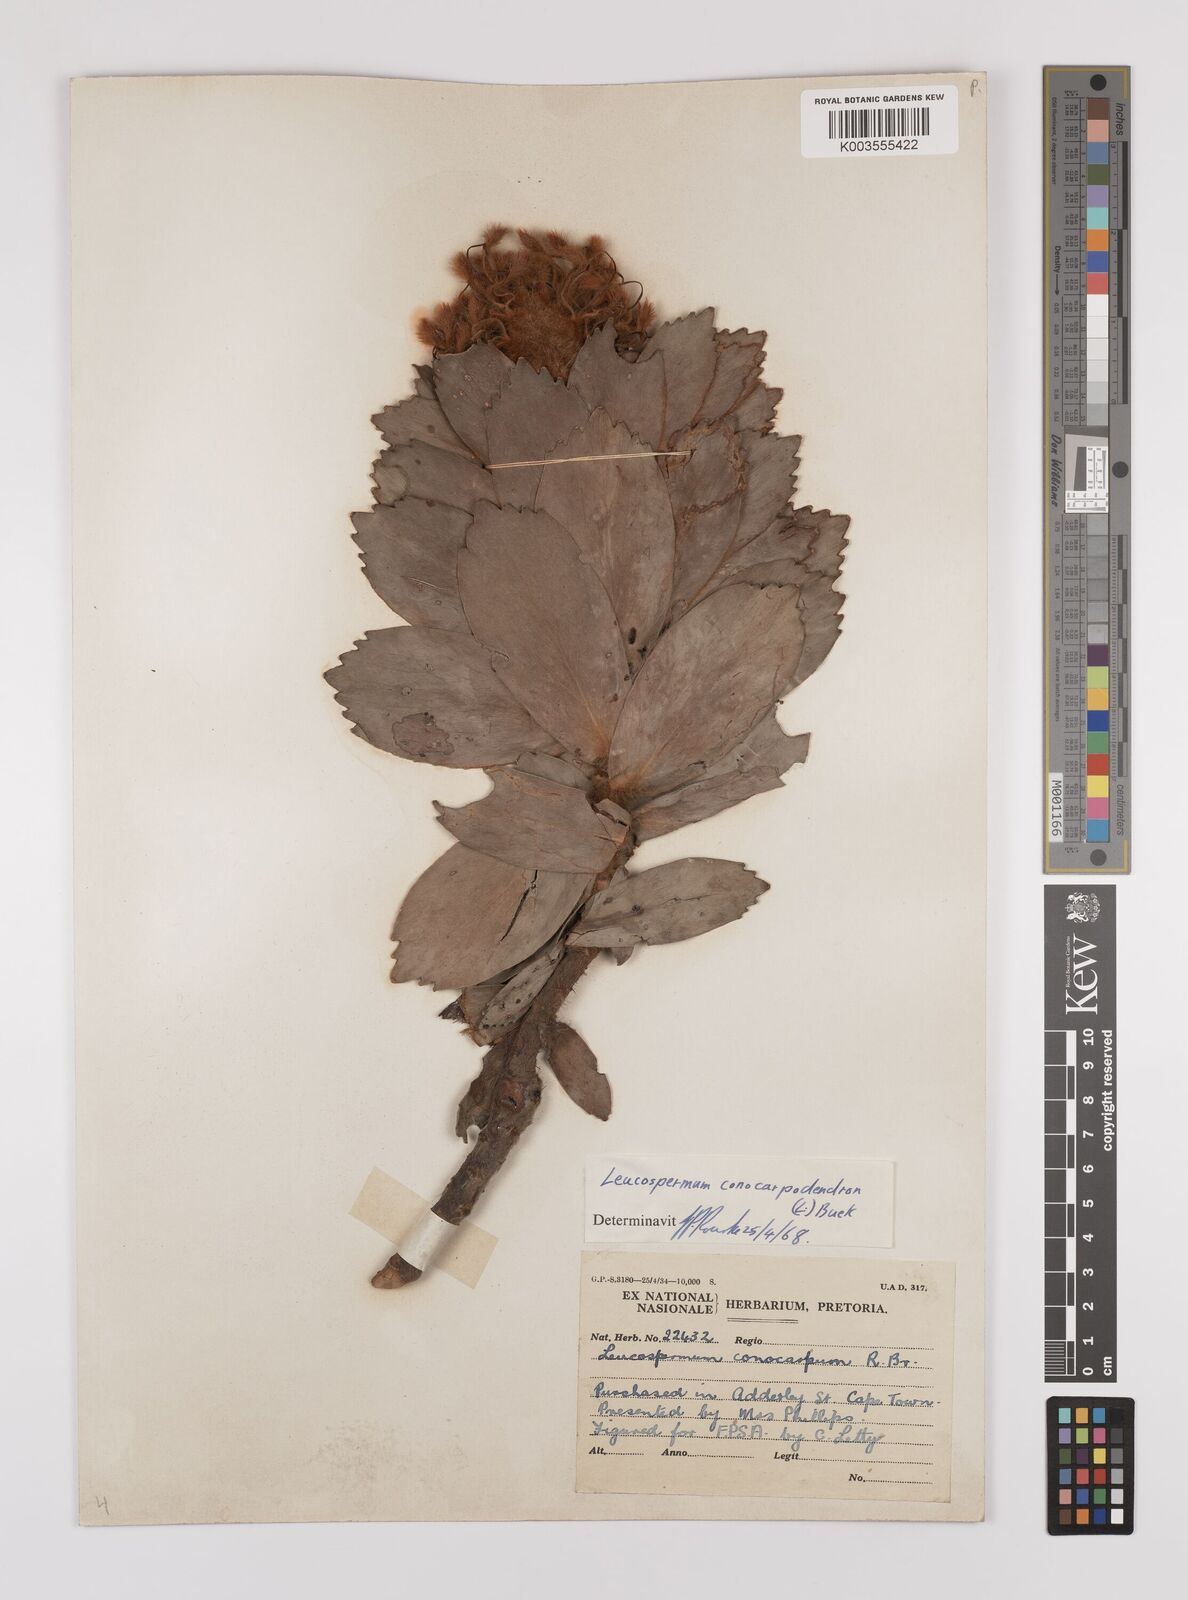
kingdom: Plantae
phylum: Tracheophyta
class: Magnoliopsida
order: Proteales
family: Proteaceae
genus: Leucospermum
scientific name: Leucospermum conocarpodendron
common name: Tree pincushion
